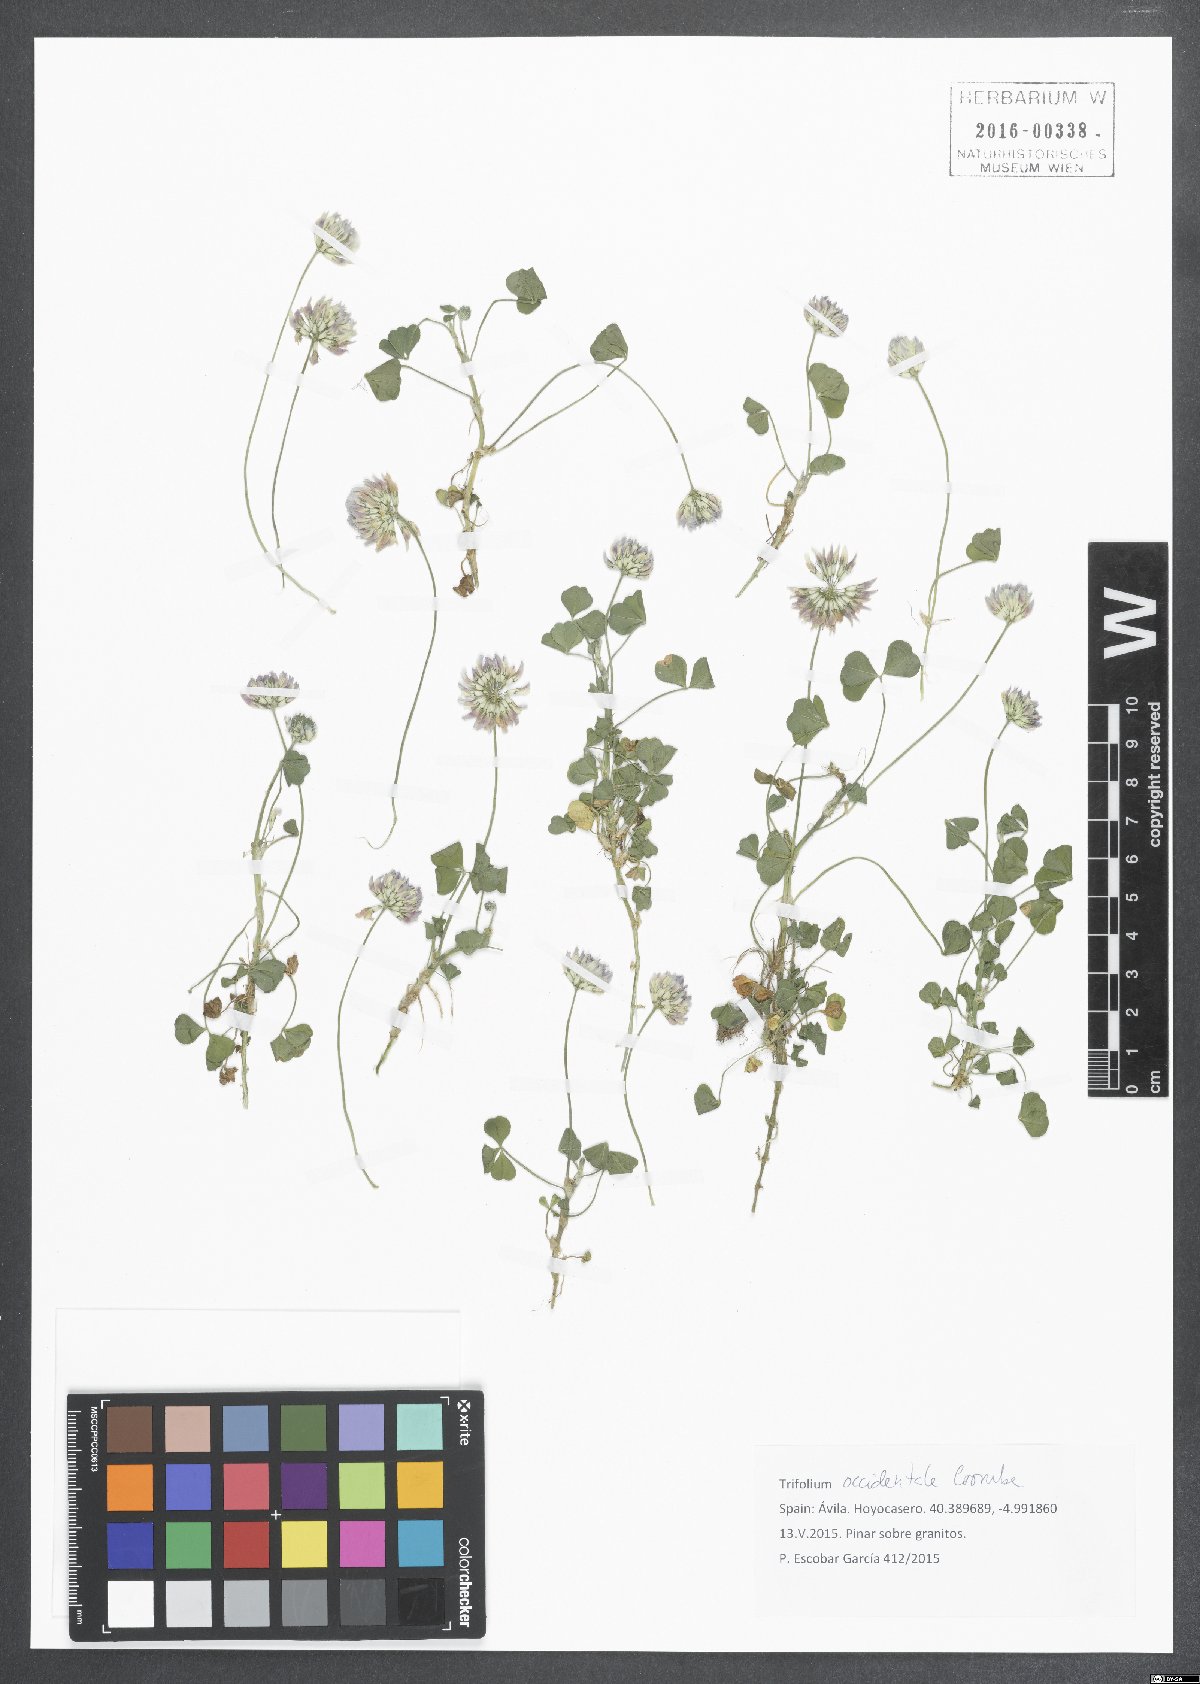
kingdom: Plantae
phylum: Tracheophyta
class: Magnoliopsida
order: Fabales
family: Fabaceae
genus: Trifolium
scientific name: Trifolium repens
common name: White clover
